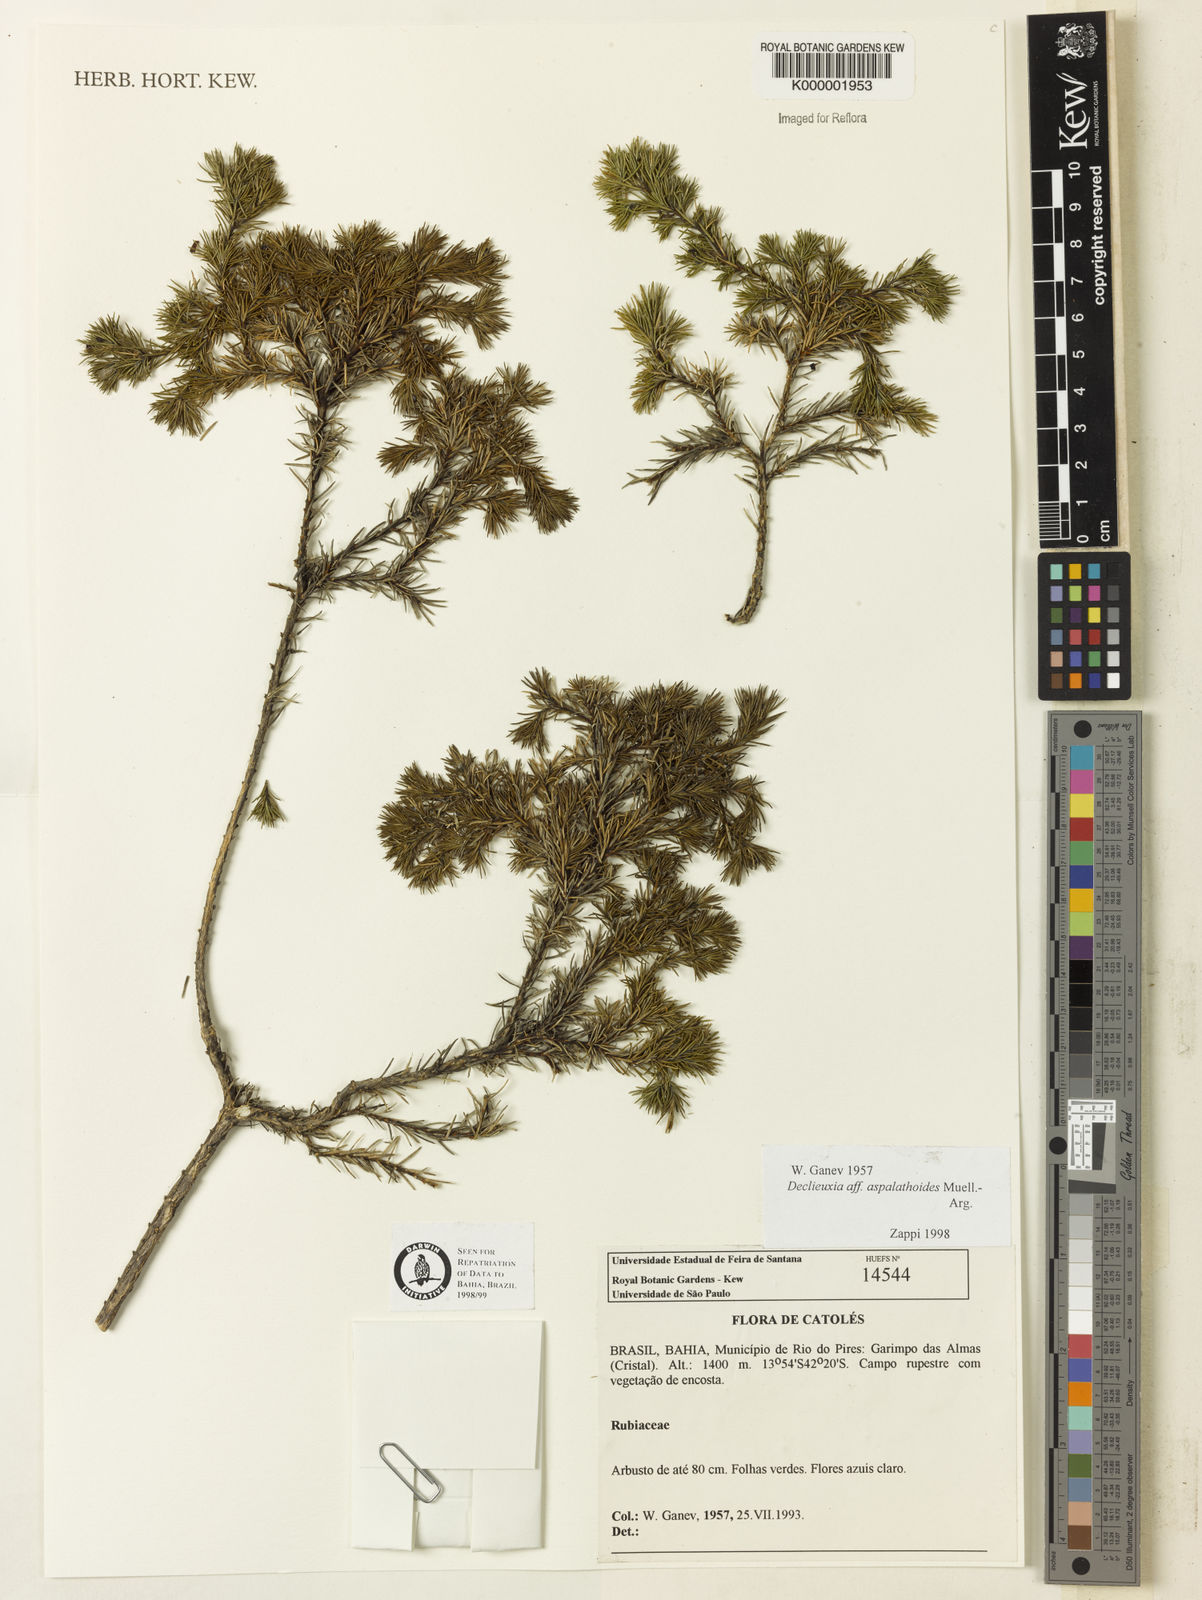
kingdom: Plantae
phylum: Tracheophyta
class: Magnoliopsida
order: Gentianales
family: Rubiaceae
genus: Declieuxia
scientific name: Declieuxia aspalathoides
